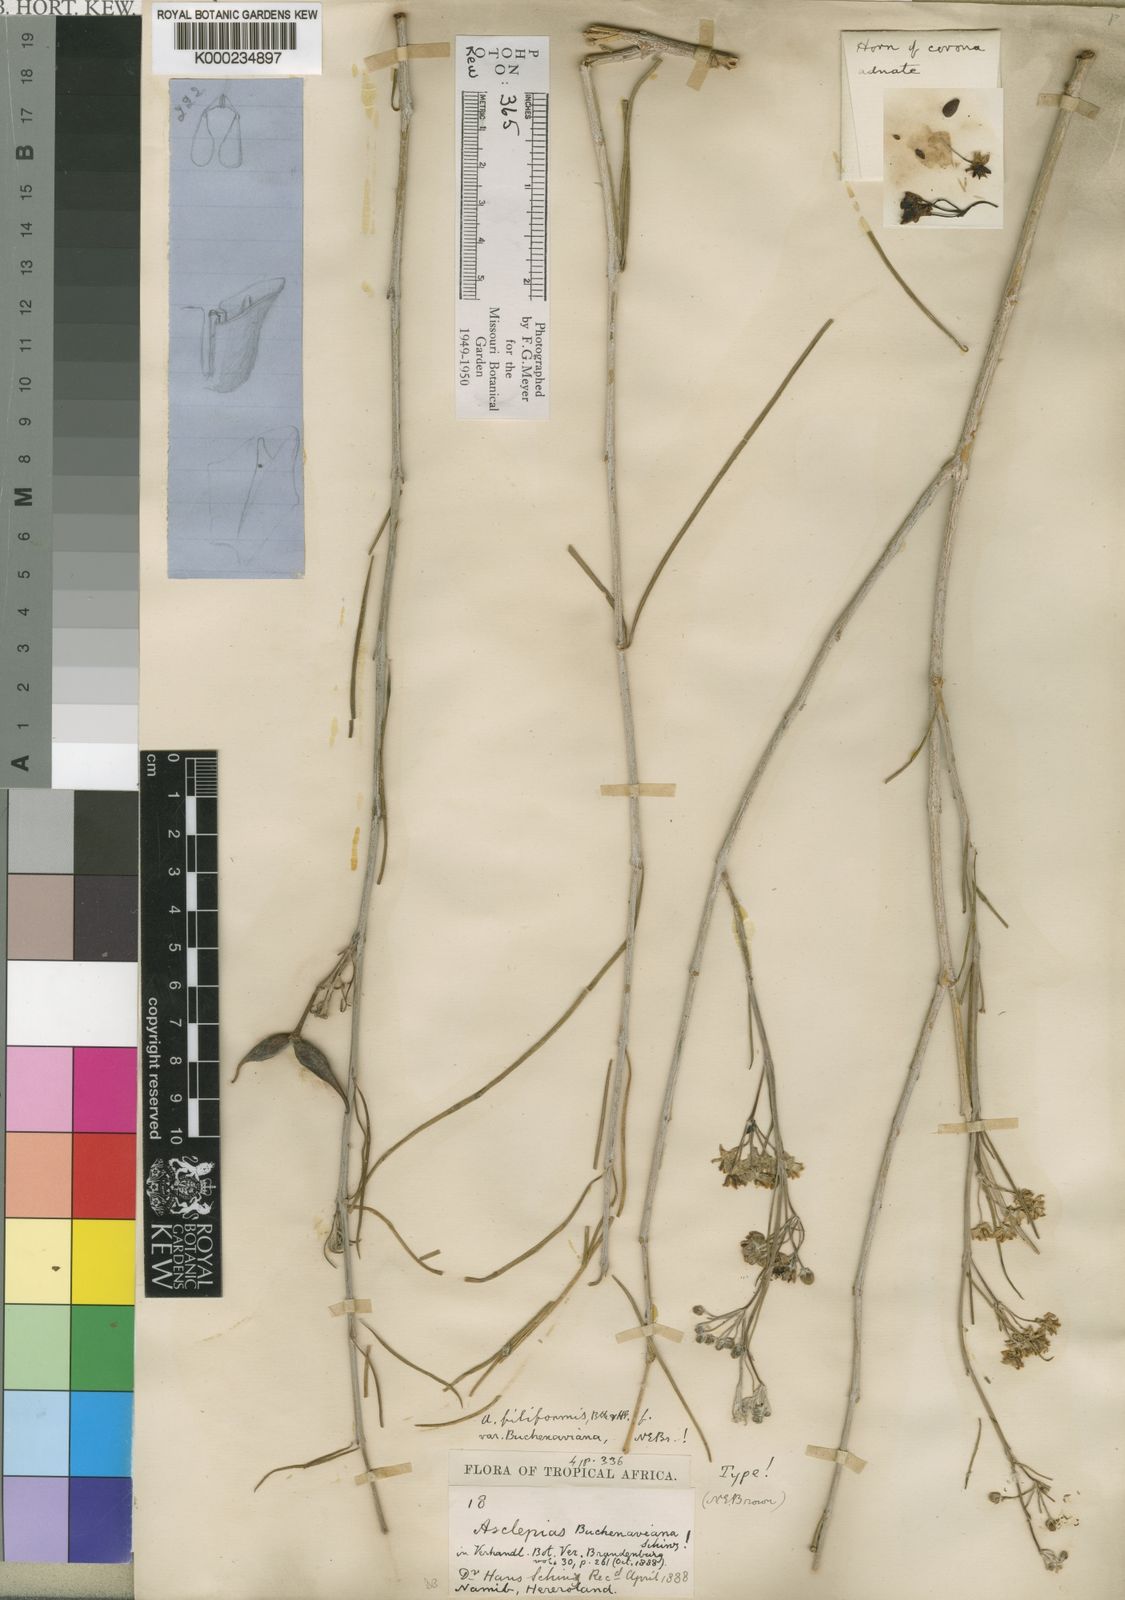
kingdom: Plantae
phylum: Tracheophyta
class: Magnoliopsida
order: Gentianales
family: Apocynaceae
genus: Gomphocarpus
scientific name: Gomphocarpus filiformis
